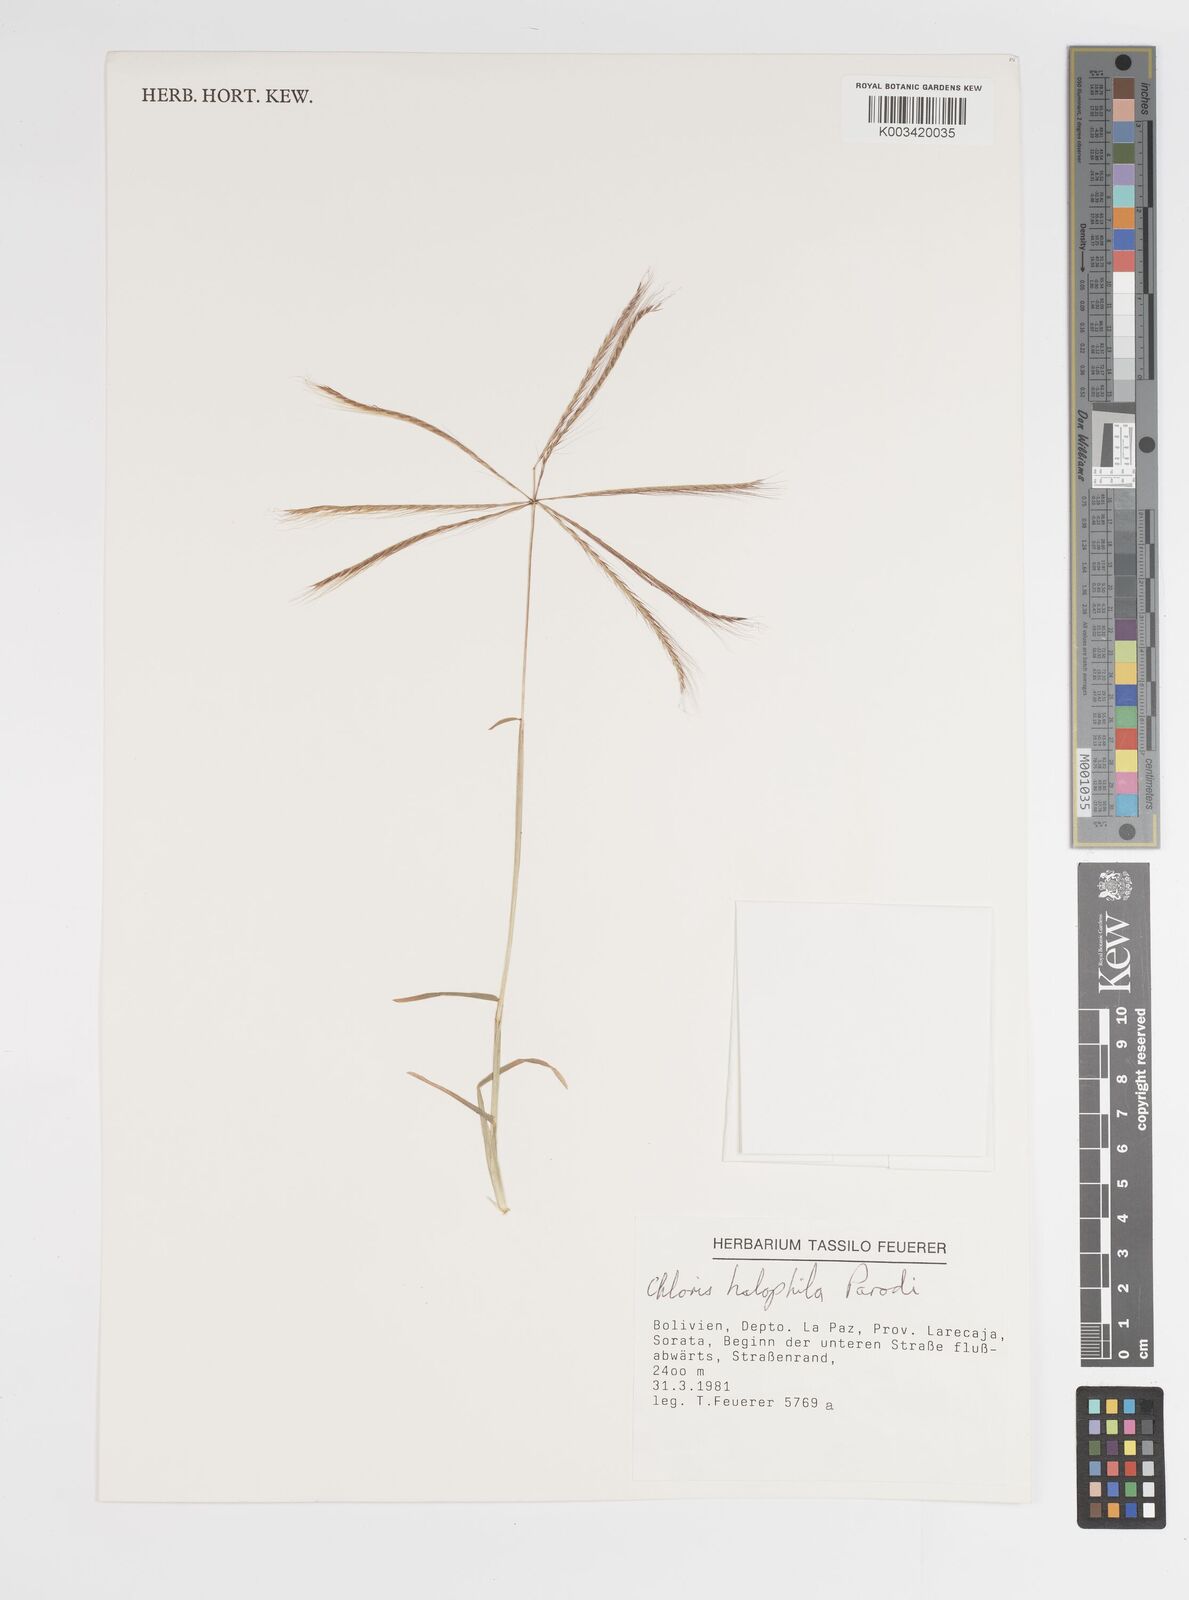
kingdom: Plantae
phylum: Tracheophyta
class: Liliopsida
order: Poales
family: Poaceae
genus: Chloris
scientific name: Chloris halophila
